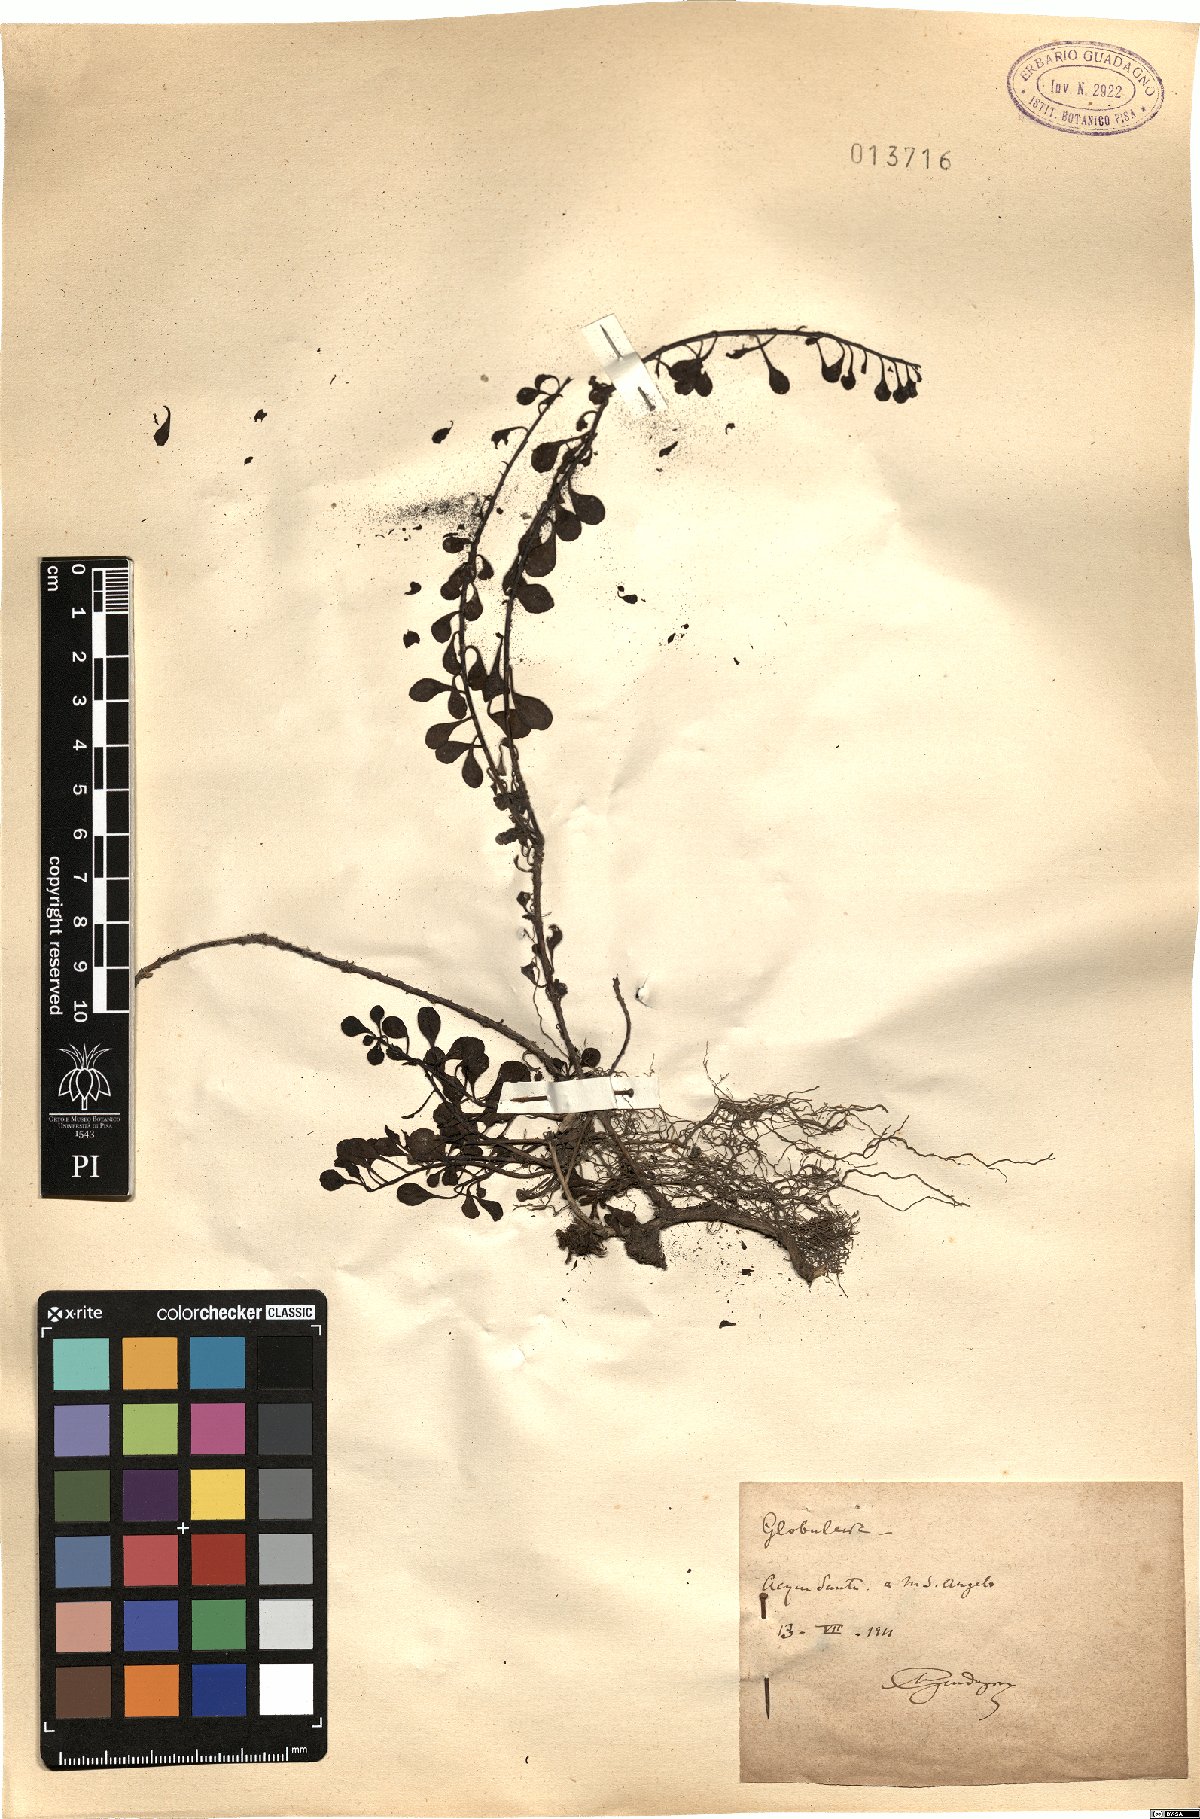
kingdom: Plantae
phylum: Tracheophyta
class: Magnoliopsida
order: Lamiales
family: Plantaginaceae
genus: Globularia
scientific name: Globularia
